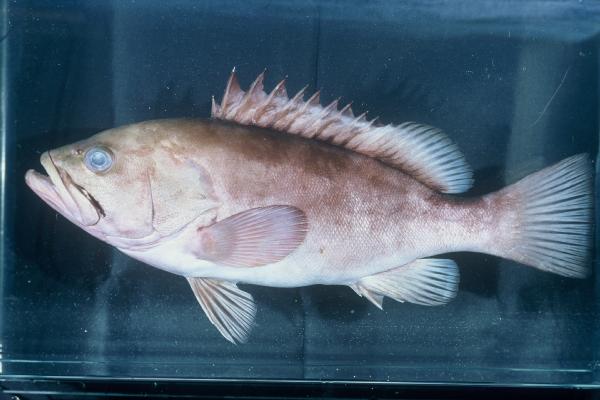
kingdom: Animalia
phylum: Chordata
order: Perciformes
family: Serranidae
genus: Epinephelus
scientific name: Epinephelus chabaudi
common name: Moustache grouper
